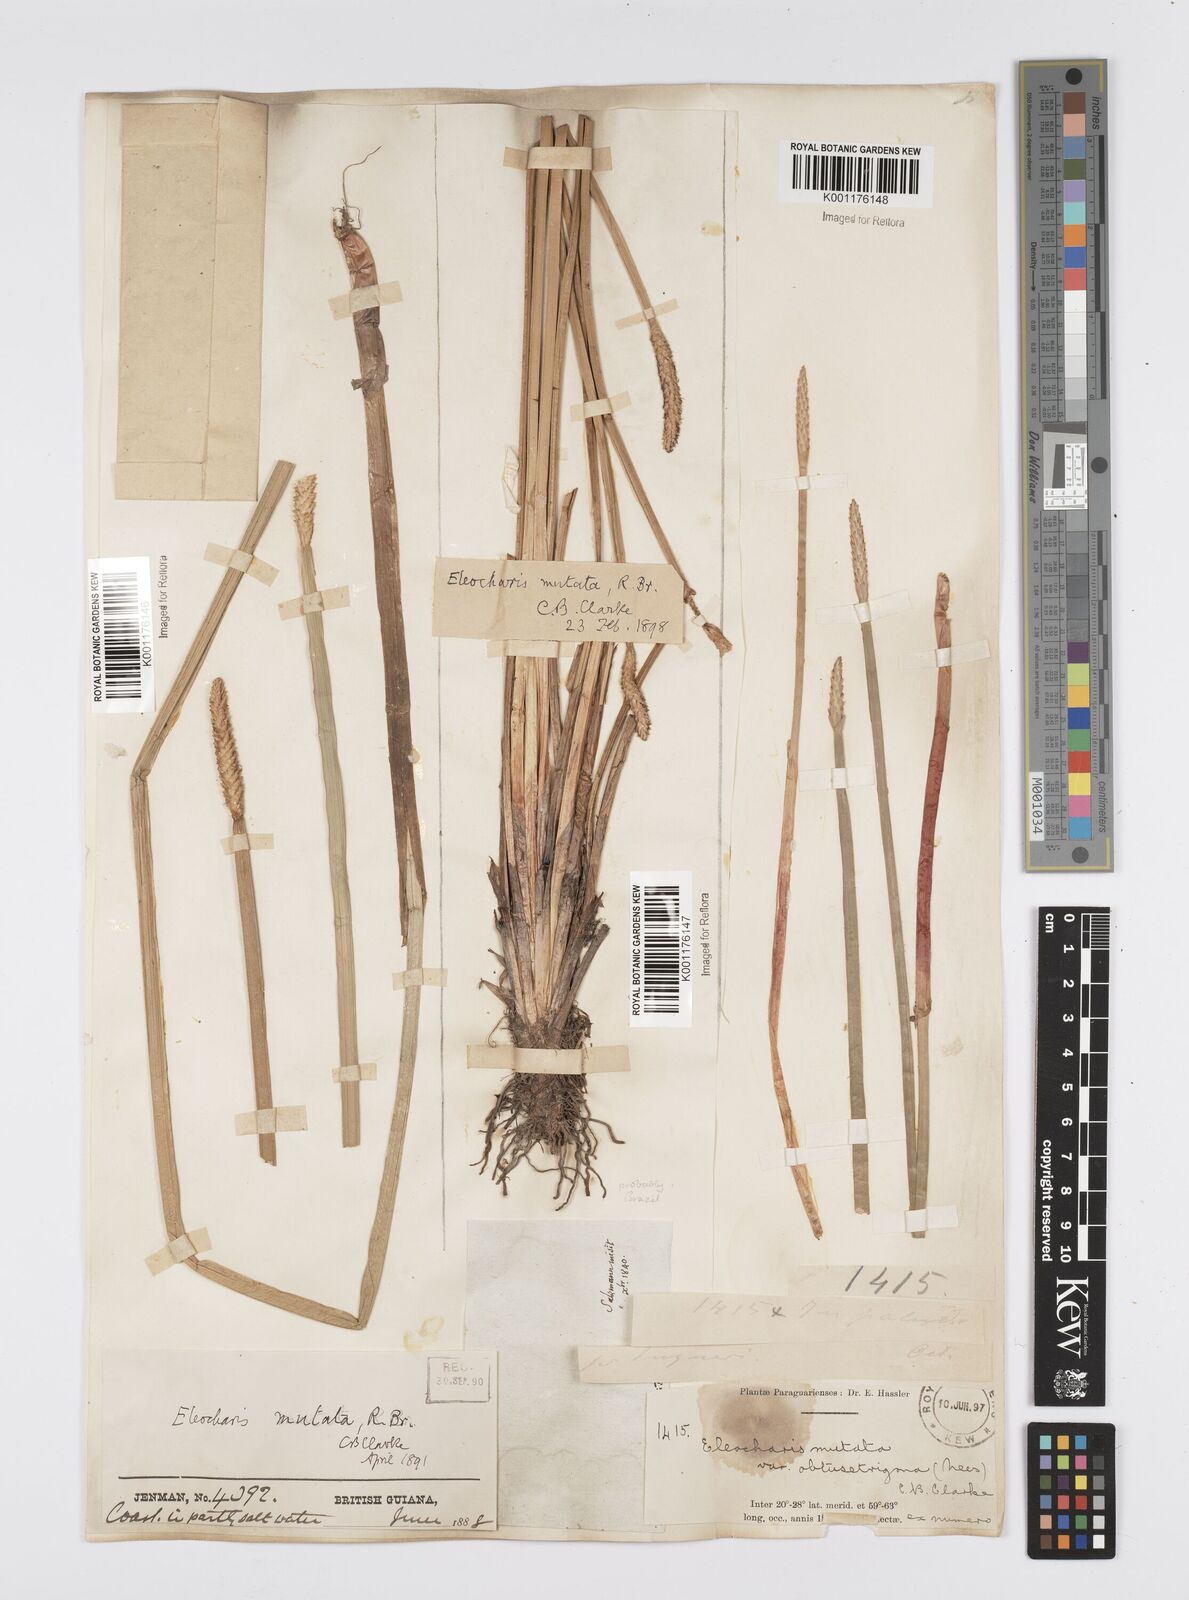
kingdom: Plantae
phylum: Tracheophyta
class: Liliopsida
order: Poales
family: Cyperaceae
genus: Eleocharis
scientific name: Eleocharis acutangula
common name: Acute spikerush
